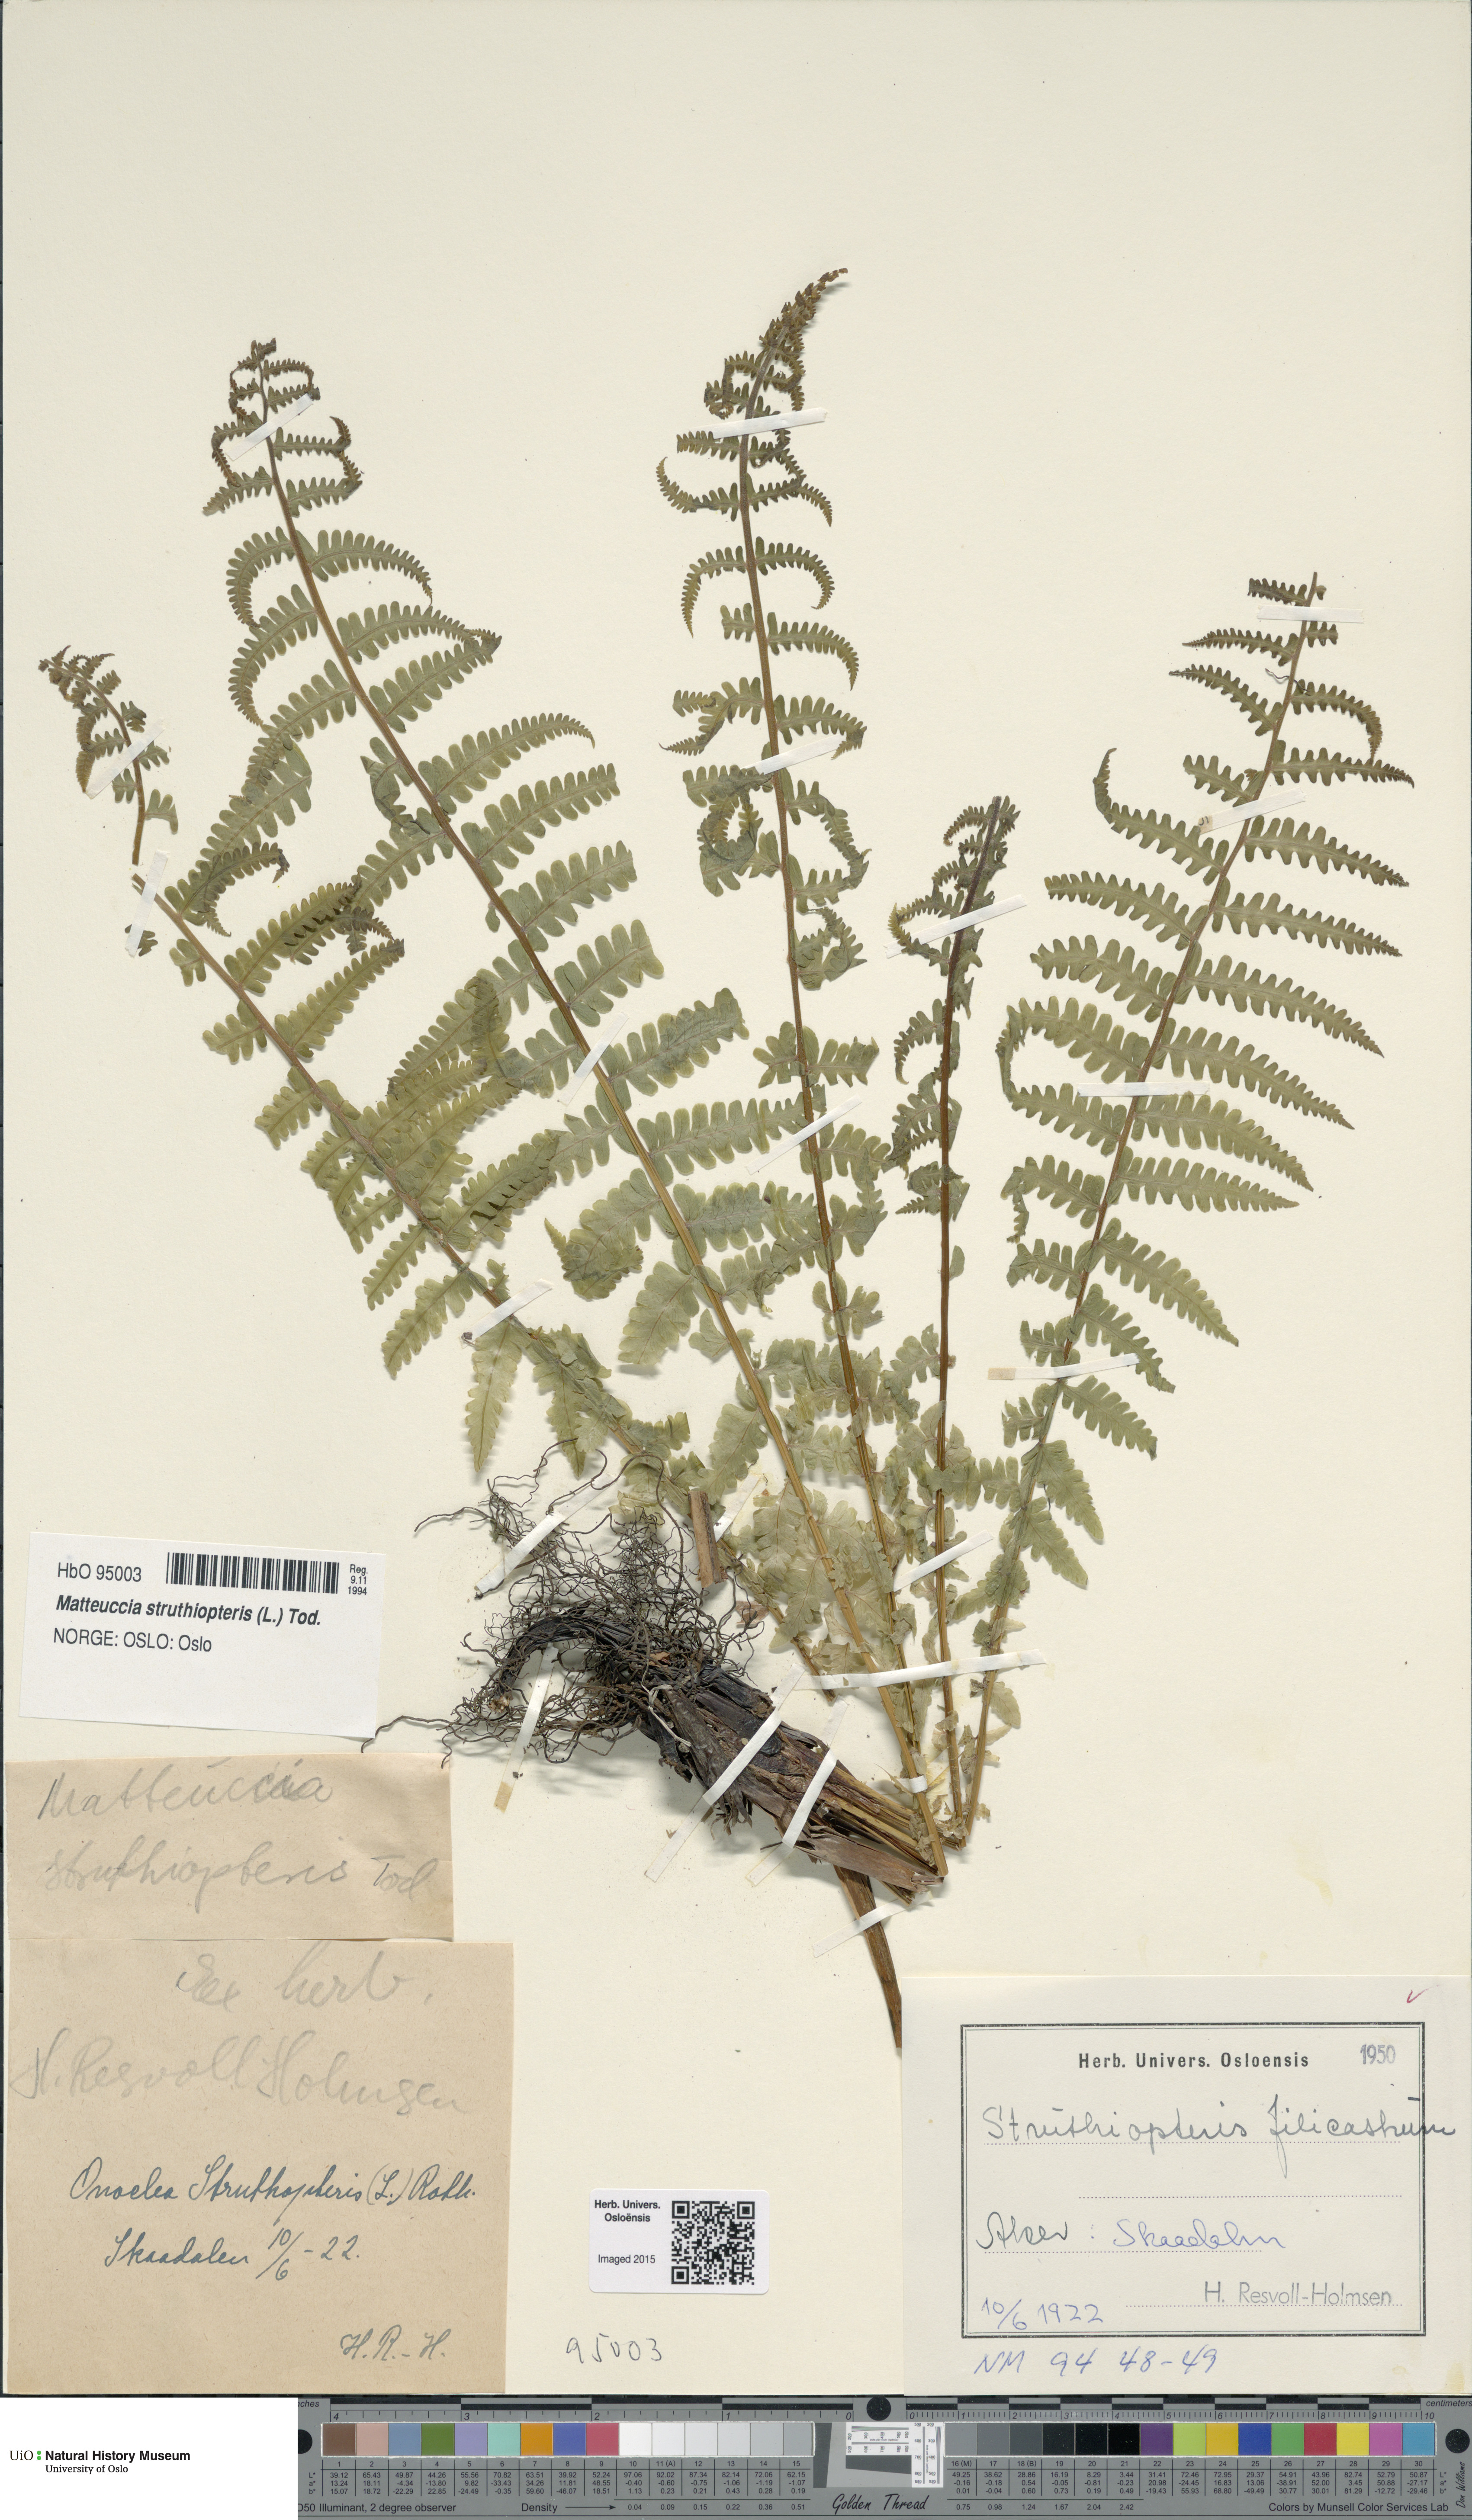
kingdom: Plantae
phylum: Tracheophyta
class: Polypodiopsida
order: Polypodiales
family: Onocleaceae
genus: Matteuccia
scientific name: Matteuccia struthiopteris
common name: Ostrich fern
